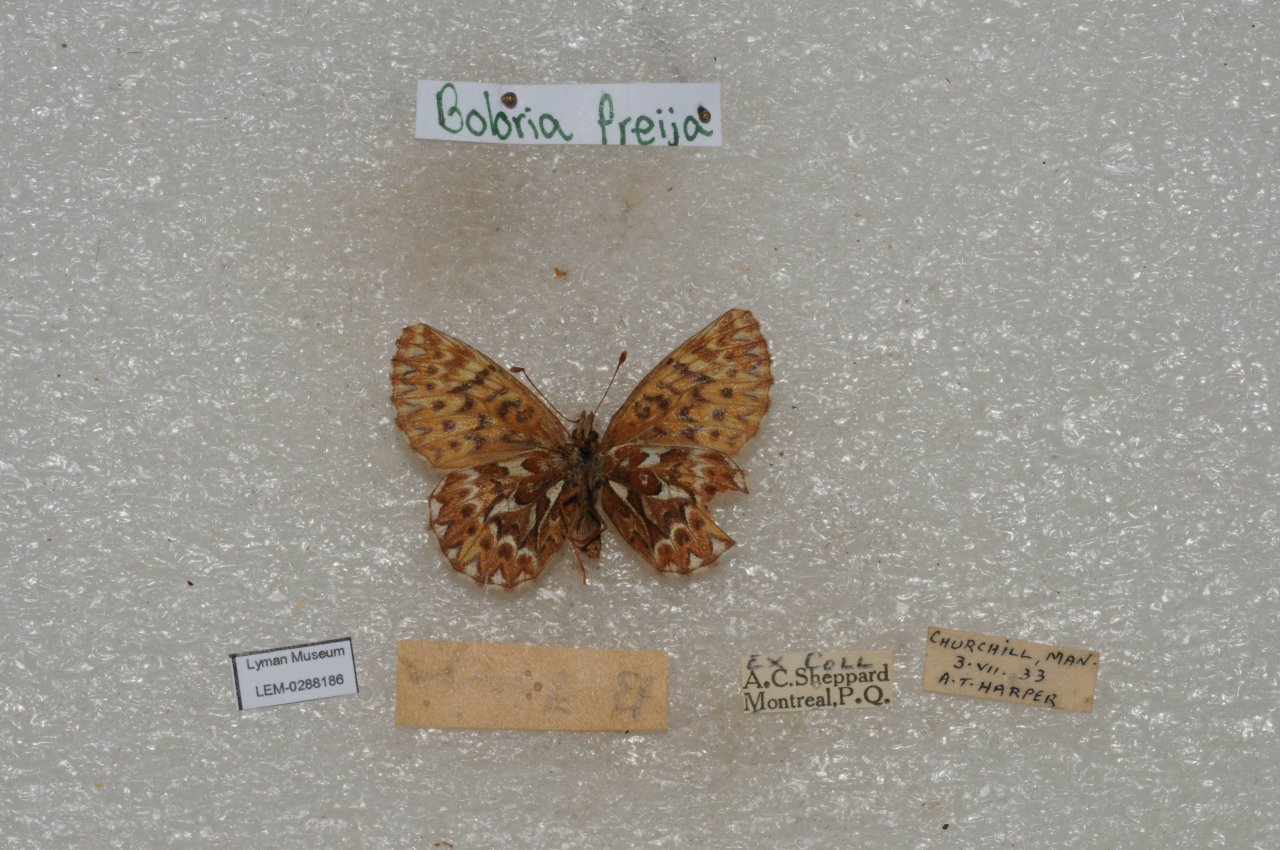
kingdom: Animalia
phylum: Arthropoda
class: Insecta
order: Lepidoptera
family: Nymphalidae
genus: Boloria
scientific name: Boloria freija
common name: Freija Fritillary
